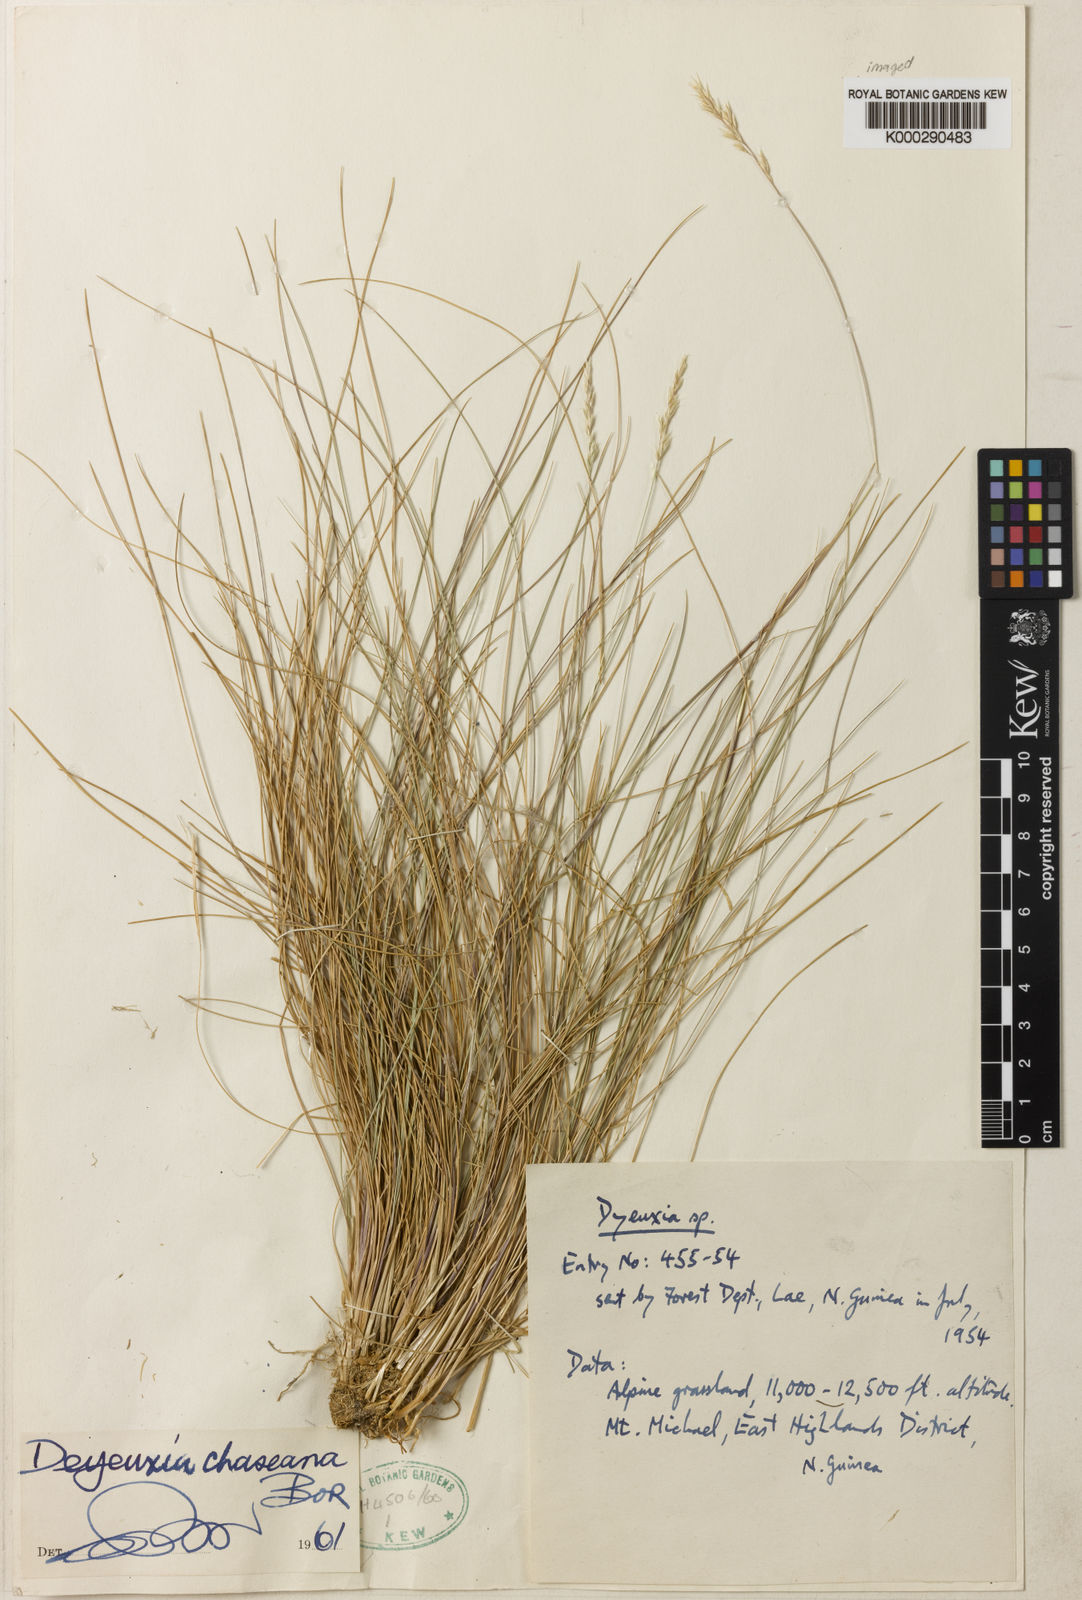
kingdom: Plantae
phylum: Tracheophyta
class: Liliopsida
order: Poales
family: Poaceae
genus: Calamagrostis
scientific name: Calamagrostis filifolia
